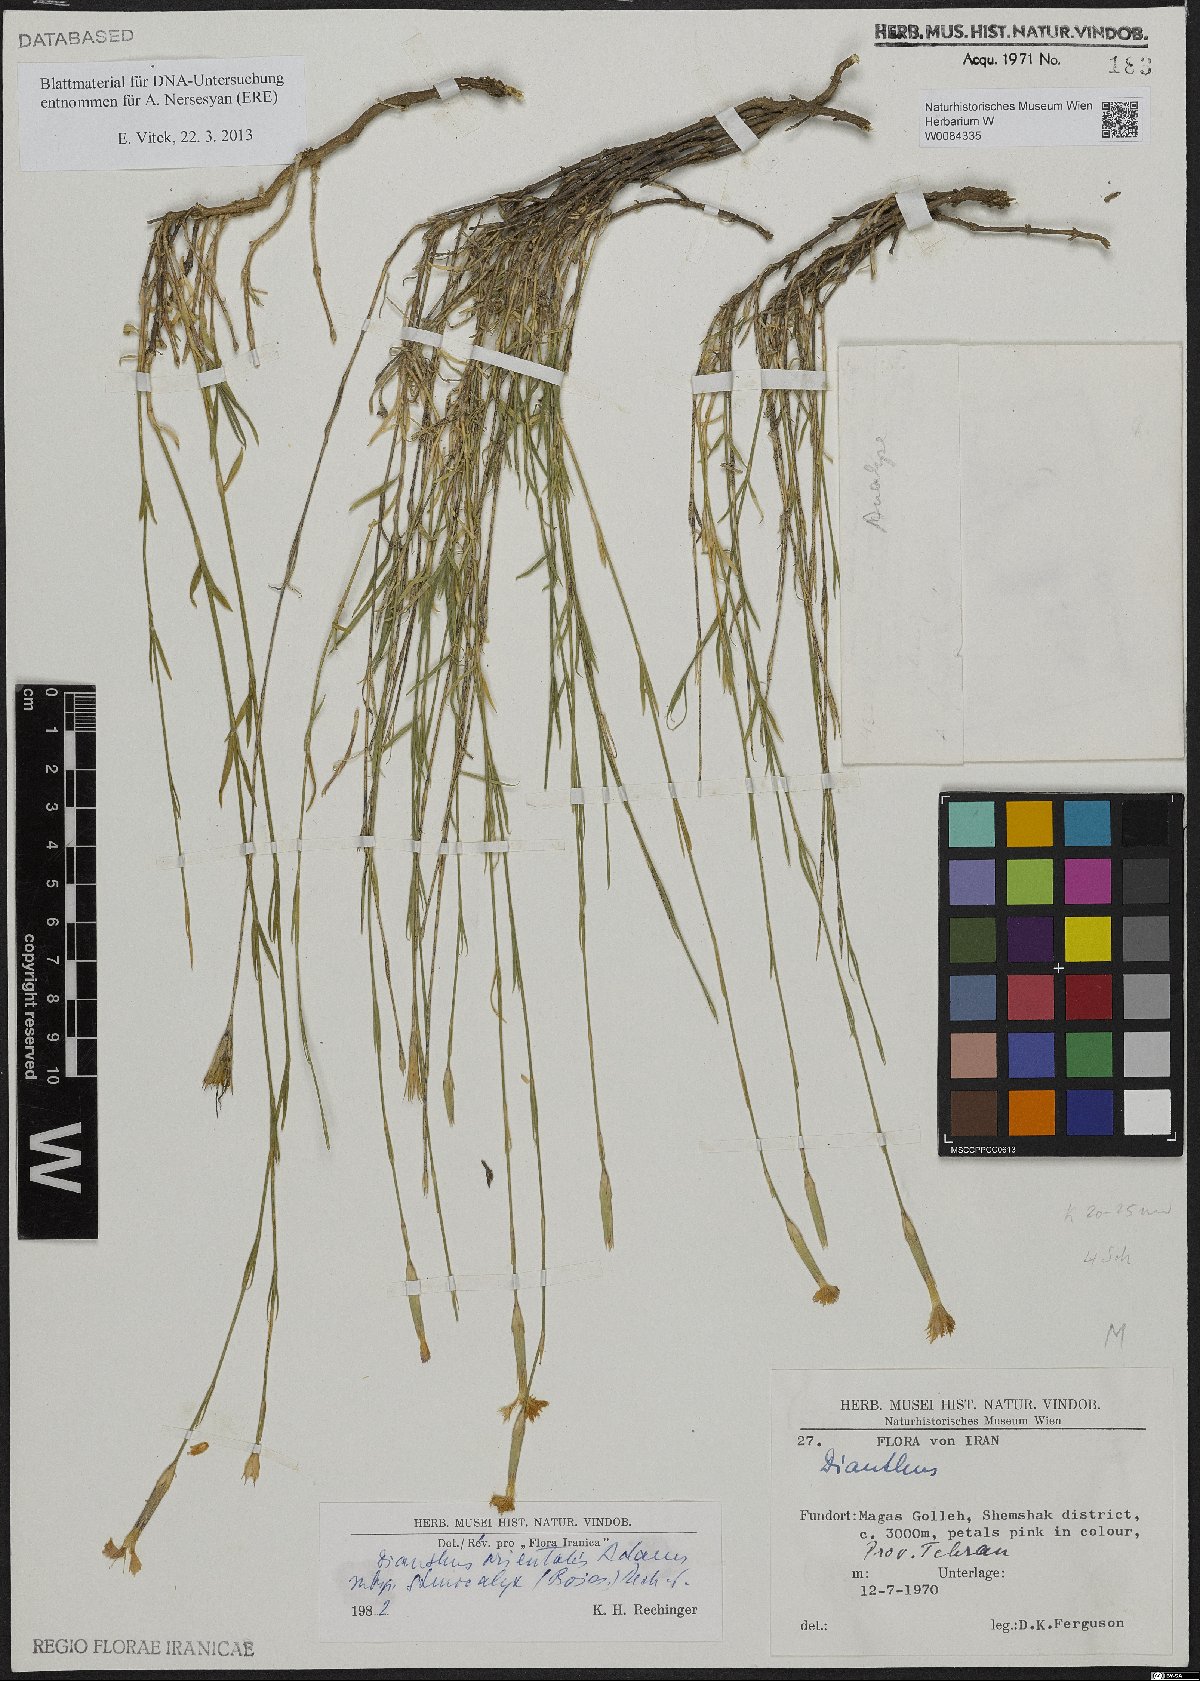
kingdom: Plantae
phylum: Tracheophyta
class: Magnoliopsida
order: Caryophyllales
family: Caryophyllaceae
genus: Dianthus
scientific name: Dianthus orientalis
